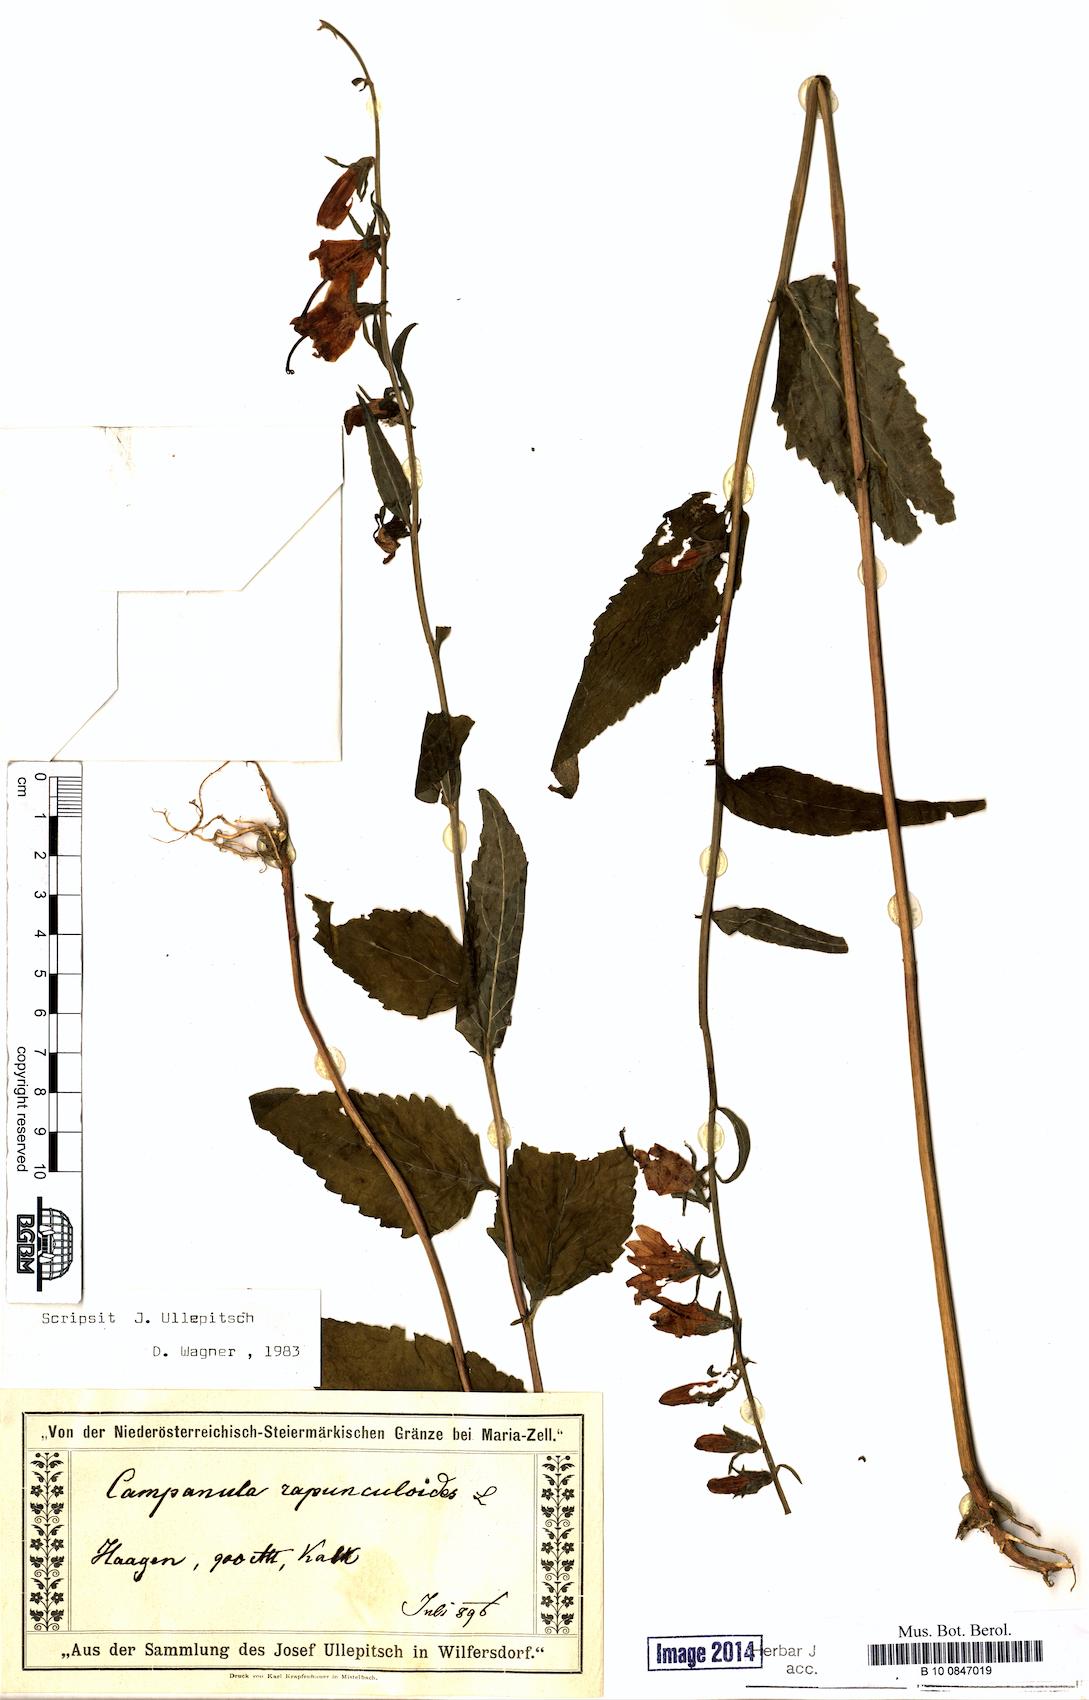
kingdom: Plantae
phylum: Tracheophyta
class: Magnoliopsida
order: Asterales
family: Campanulaceae
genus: Campanula
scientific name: Campanula rapunculoides
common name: Creeping bellflower
